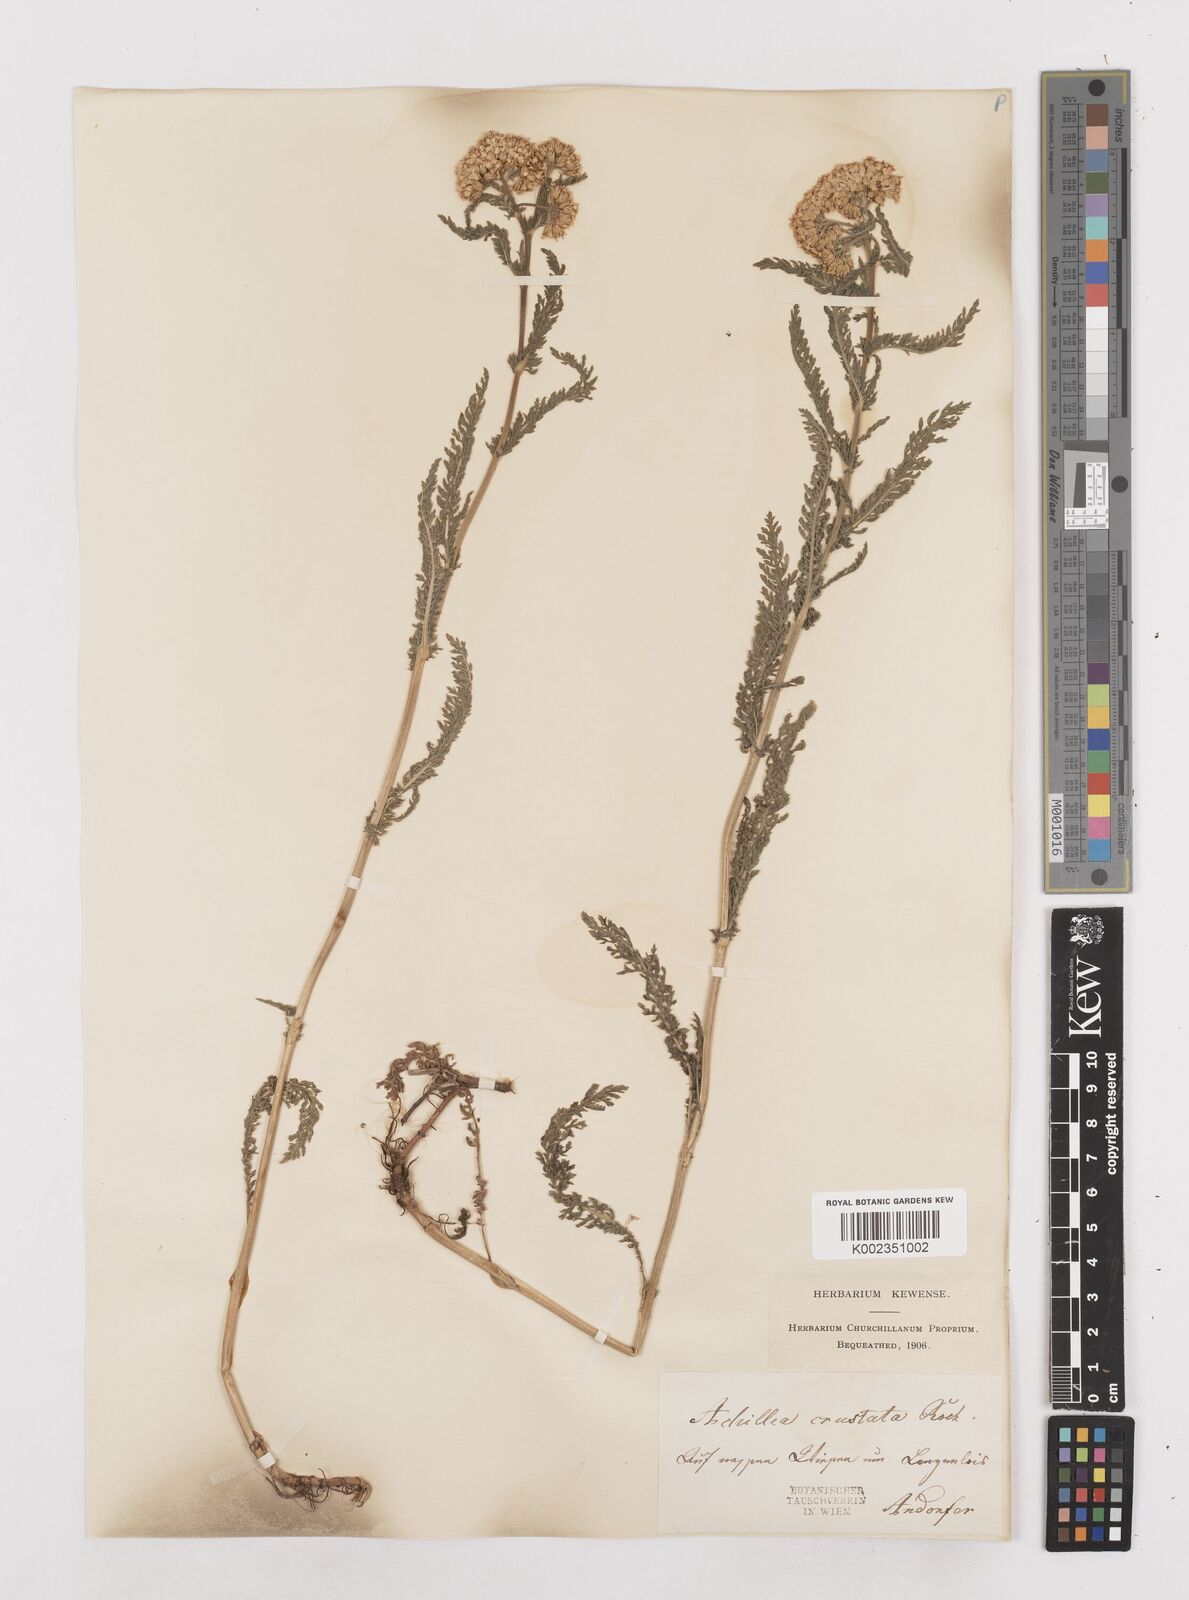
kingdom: Plantae
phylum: Tracheophyta
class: Magnoliopsida
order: Asterales
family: Asteraceae
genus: Achillea
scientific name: Achillea millefolium
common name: Yarrow
